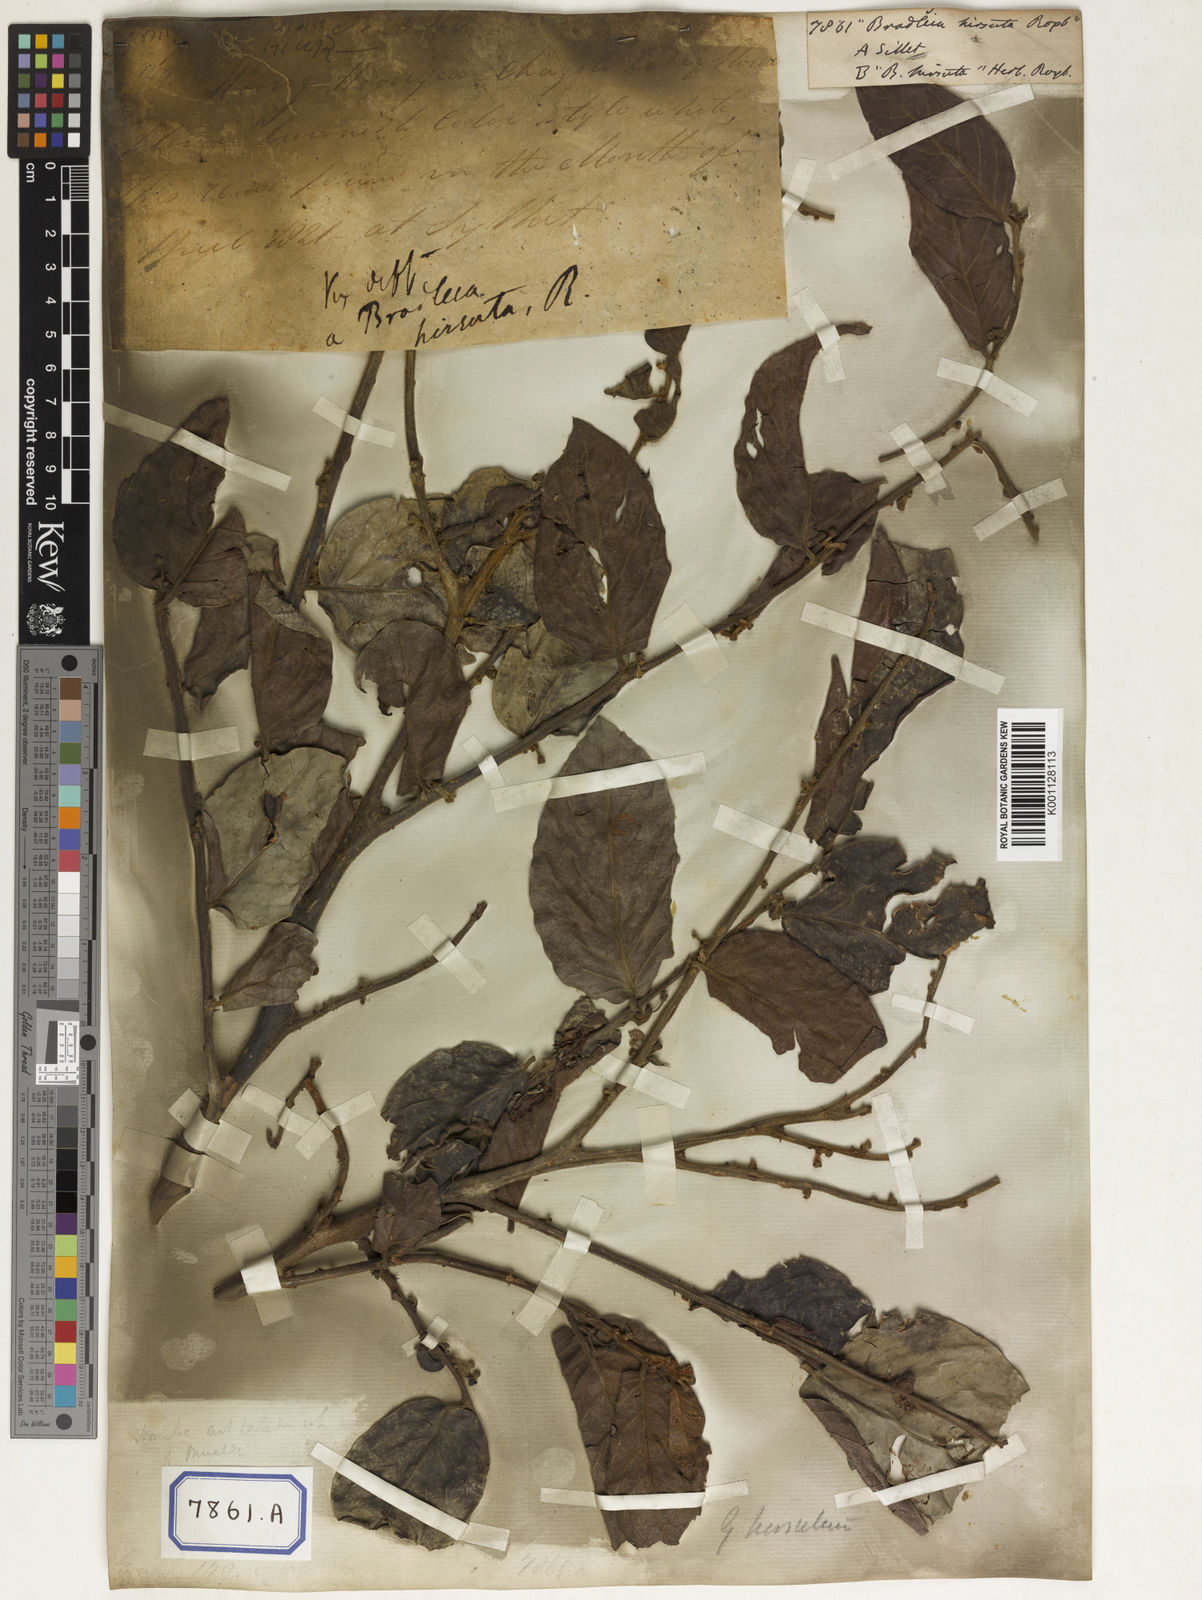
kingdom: Plantae
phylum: Tracheophyta
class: Magnoliopsida
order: Malpighiales
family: Euphorbiaceae
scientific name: Euphorbiaceae
